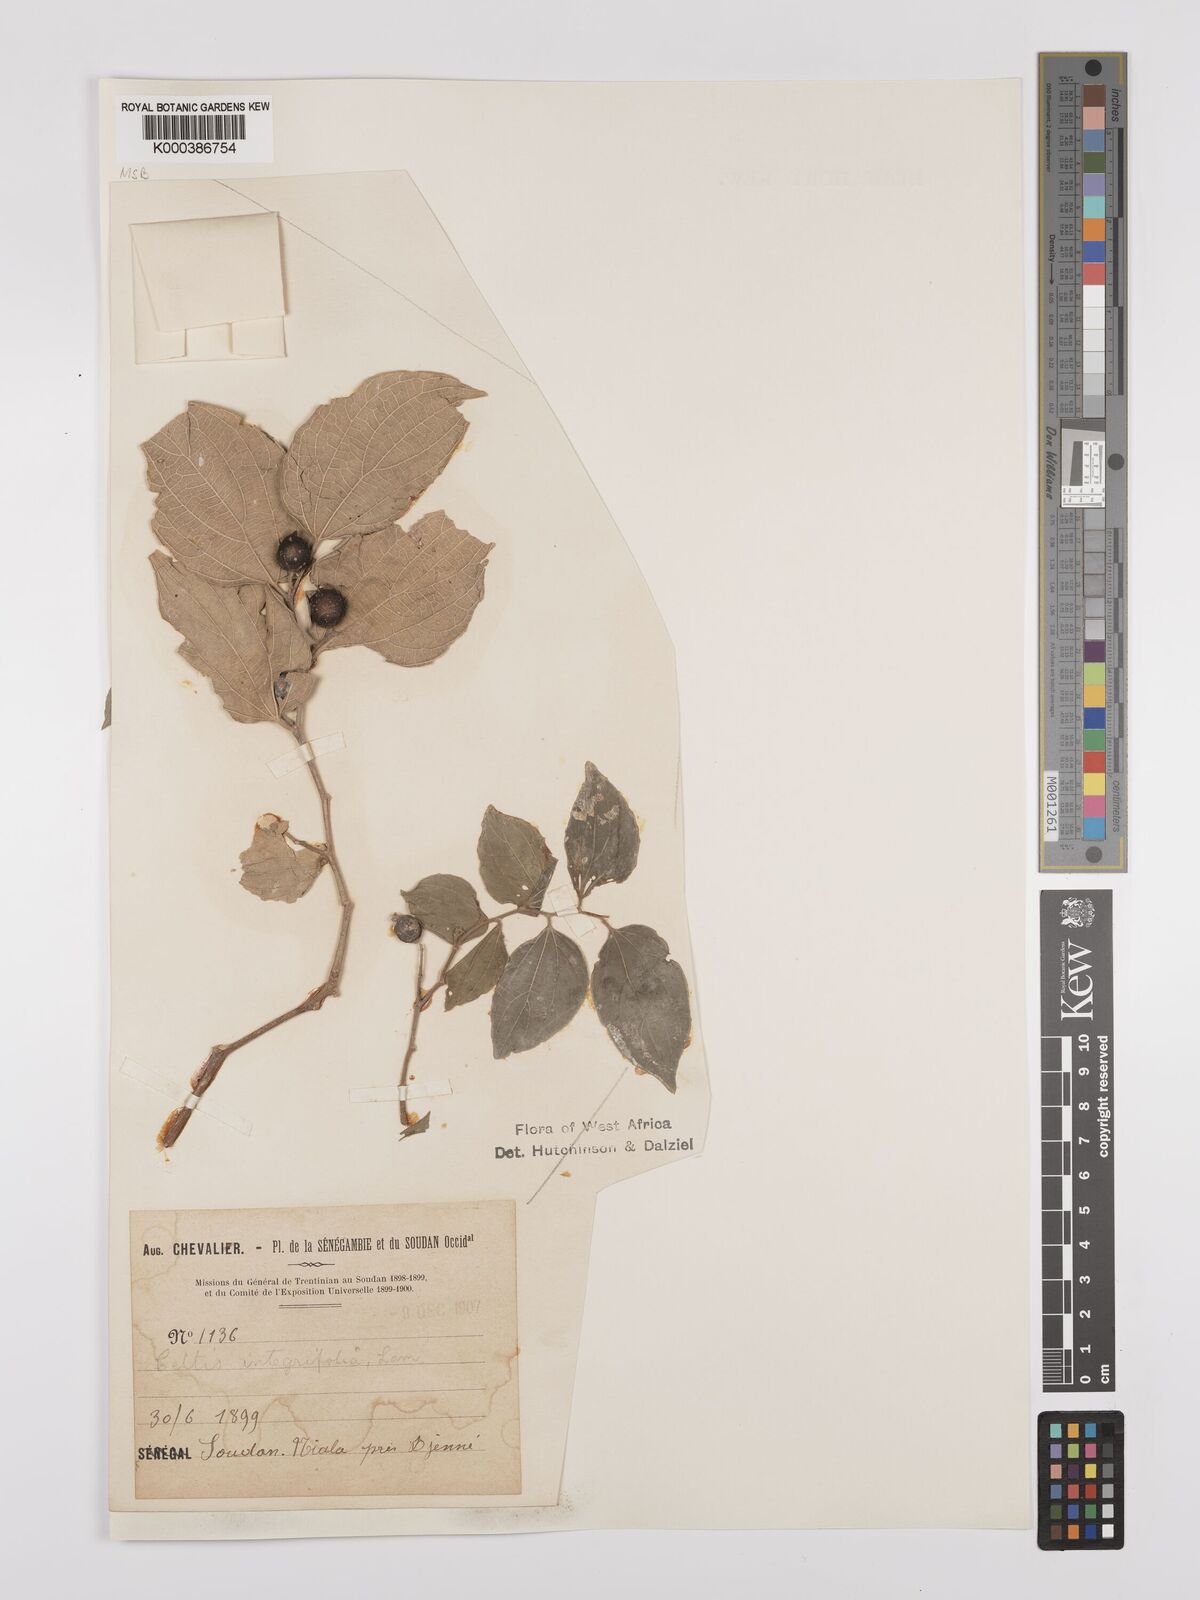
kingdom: Plantae
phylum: Tracheophyta
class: Magnoliopsida
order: Rosales
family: Cannabaceae
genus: Celtis
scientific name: Celtis toka
